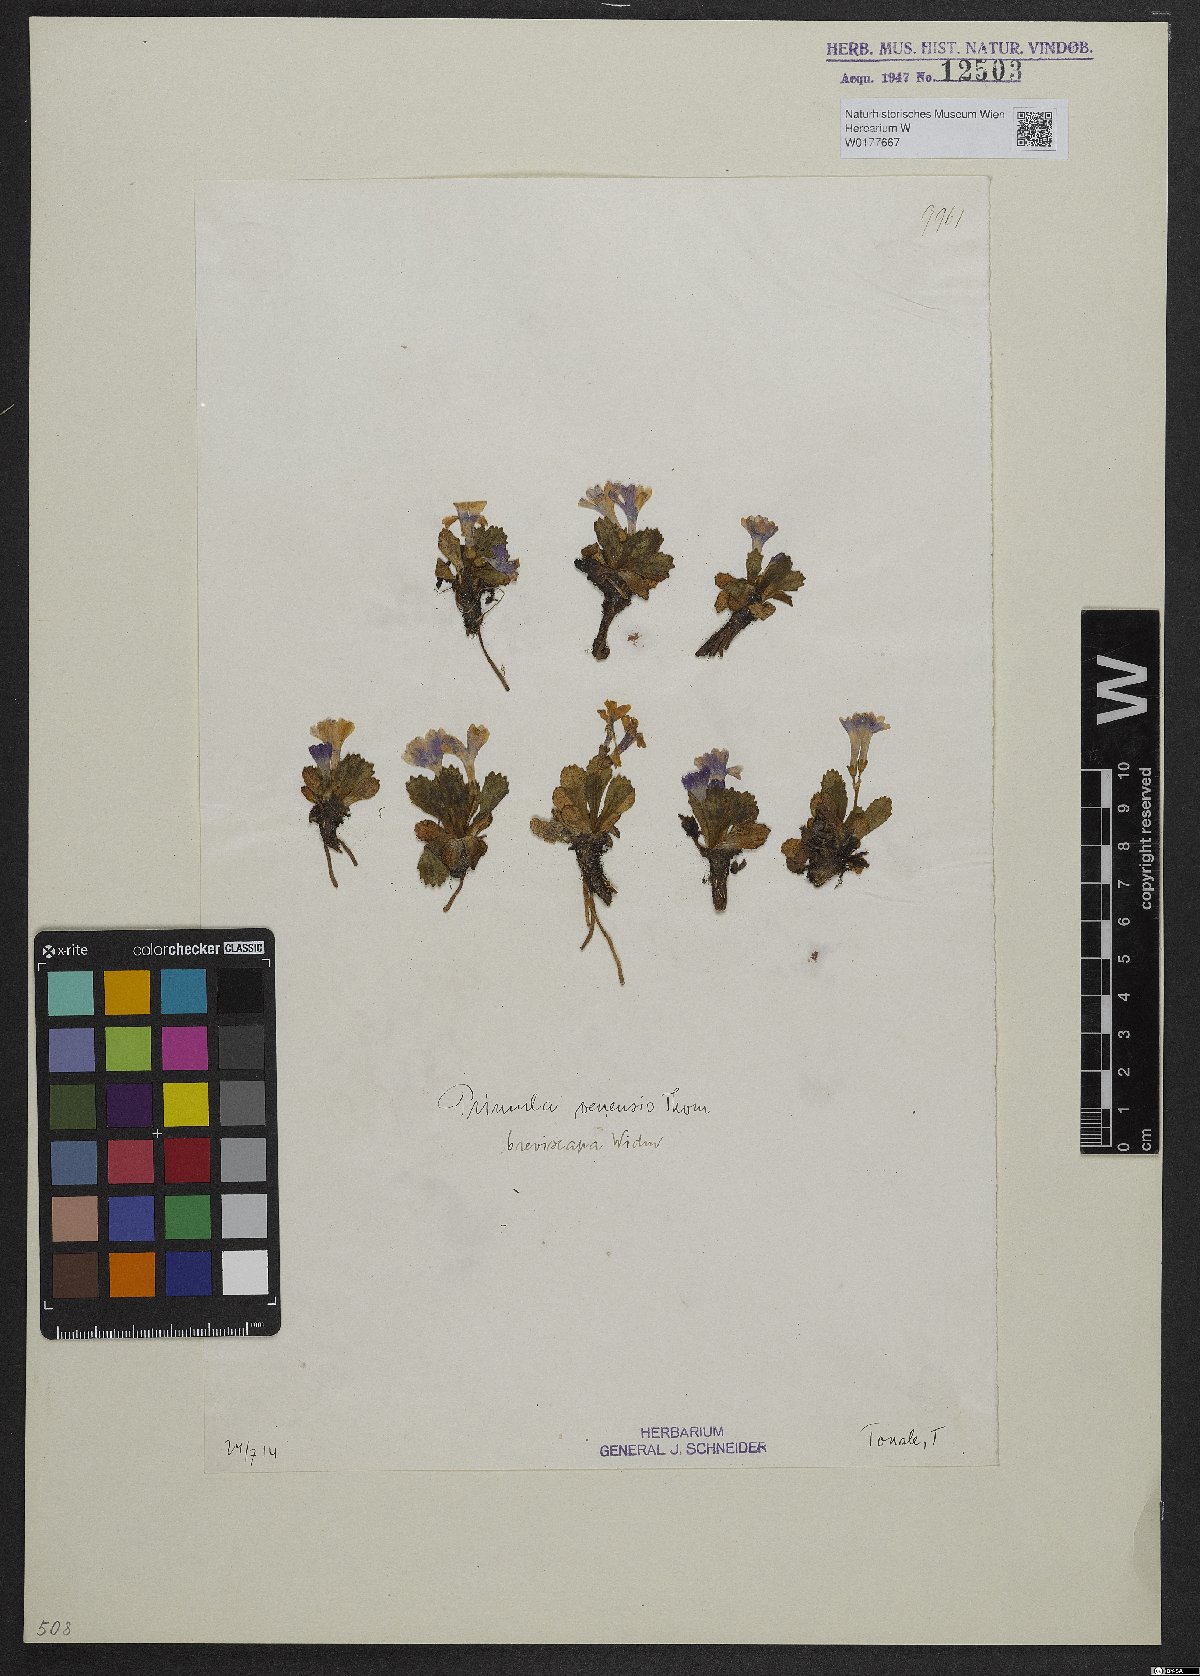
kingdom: Plantae
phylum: Tracheophyta
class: Magnoliopsida
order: Ericales
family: Primulaceae
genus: Primula
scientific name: Primula daonensis
